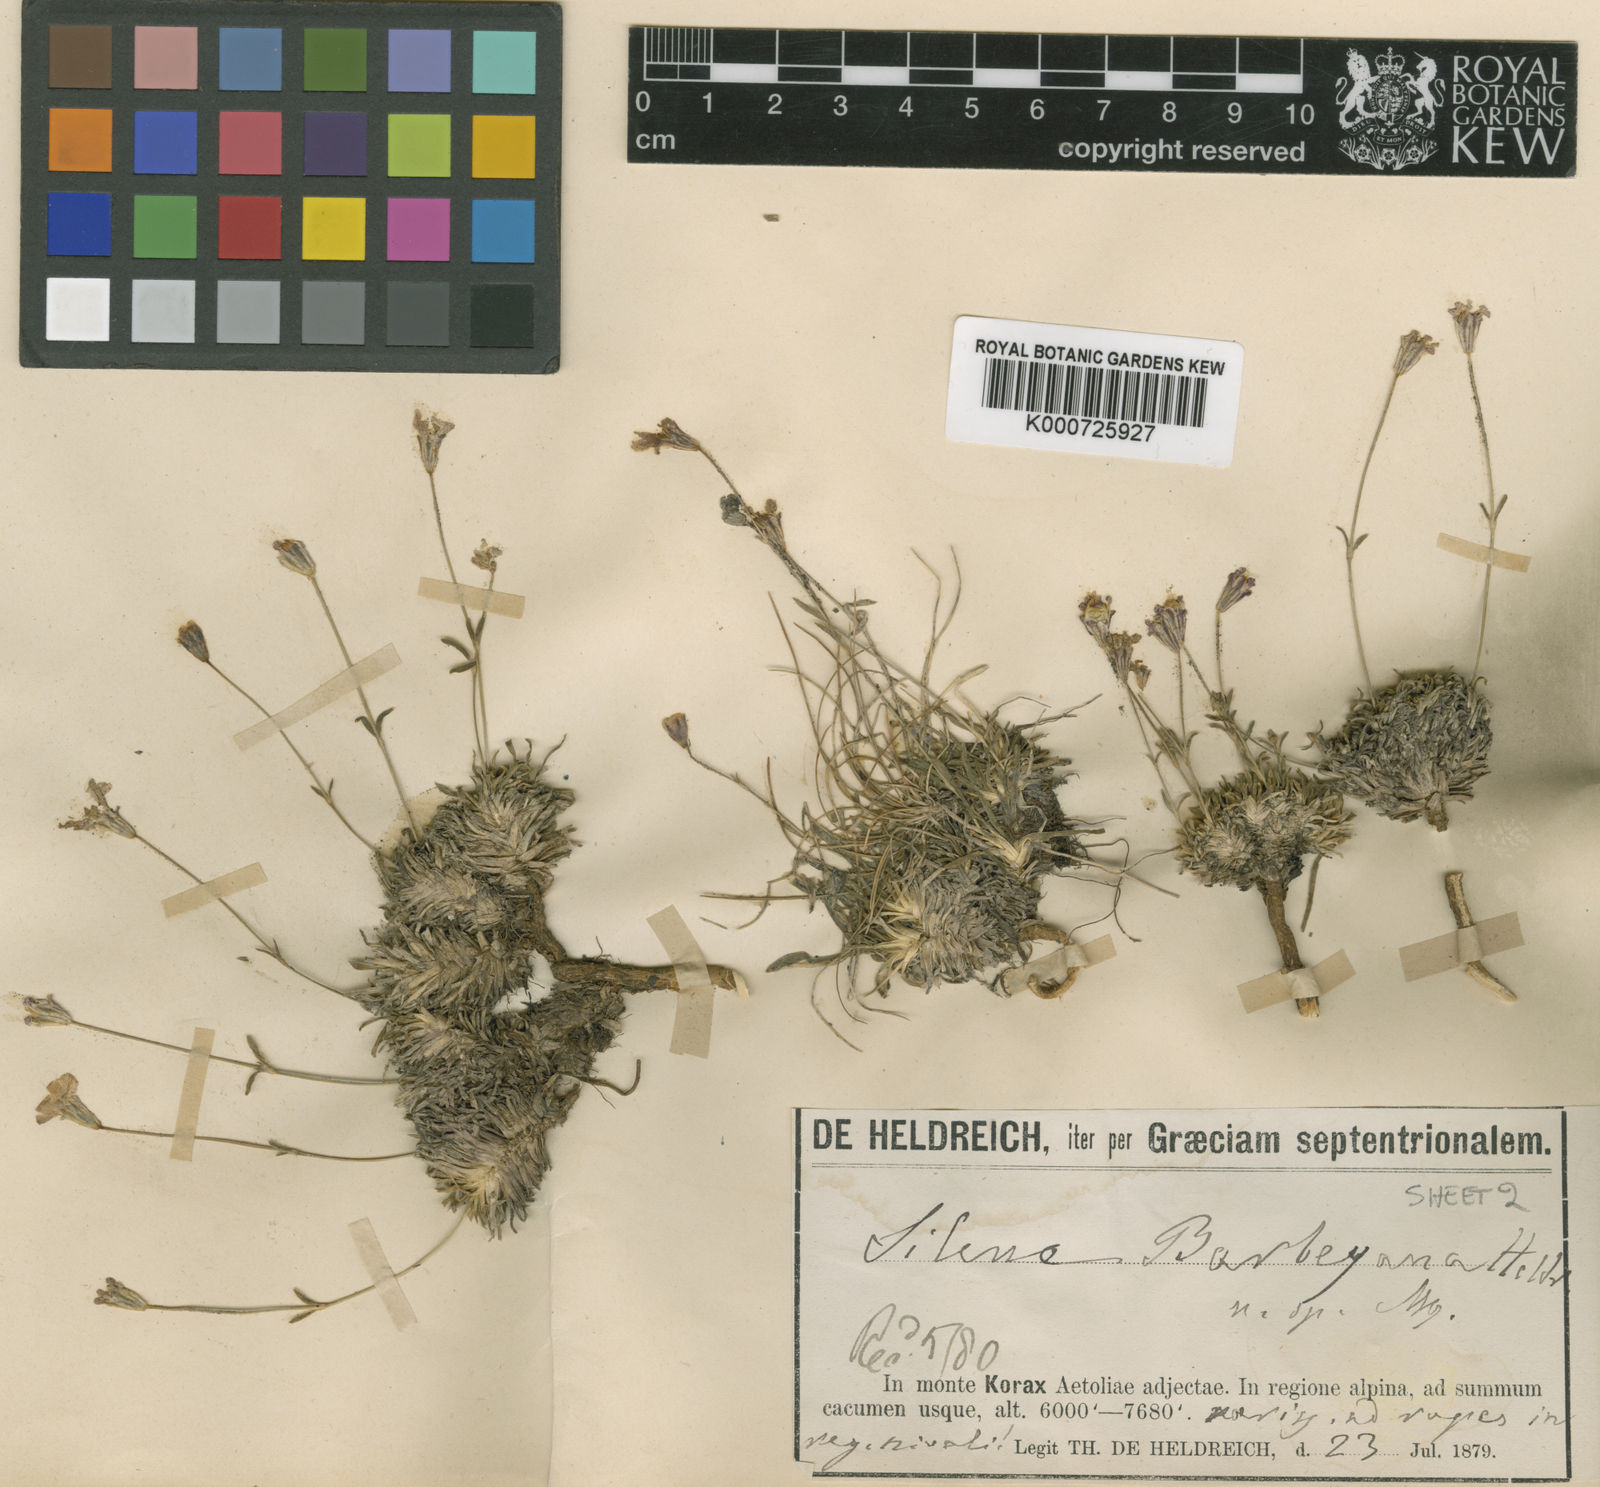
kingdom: Plantae
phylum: Tracheophyta
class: Magnoliopsida
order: Caryophyllales
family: Caryophyllaceae
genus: Silene
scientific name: Silene barbeyana
